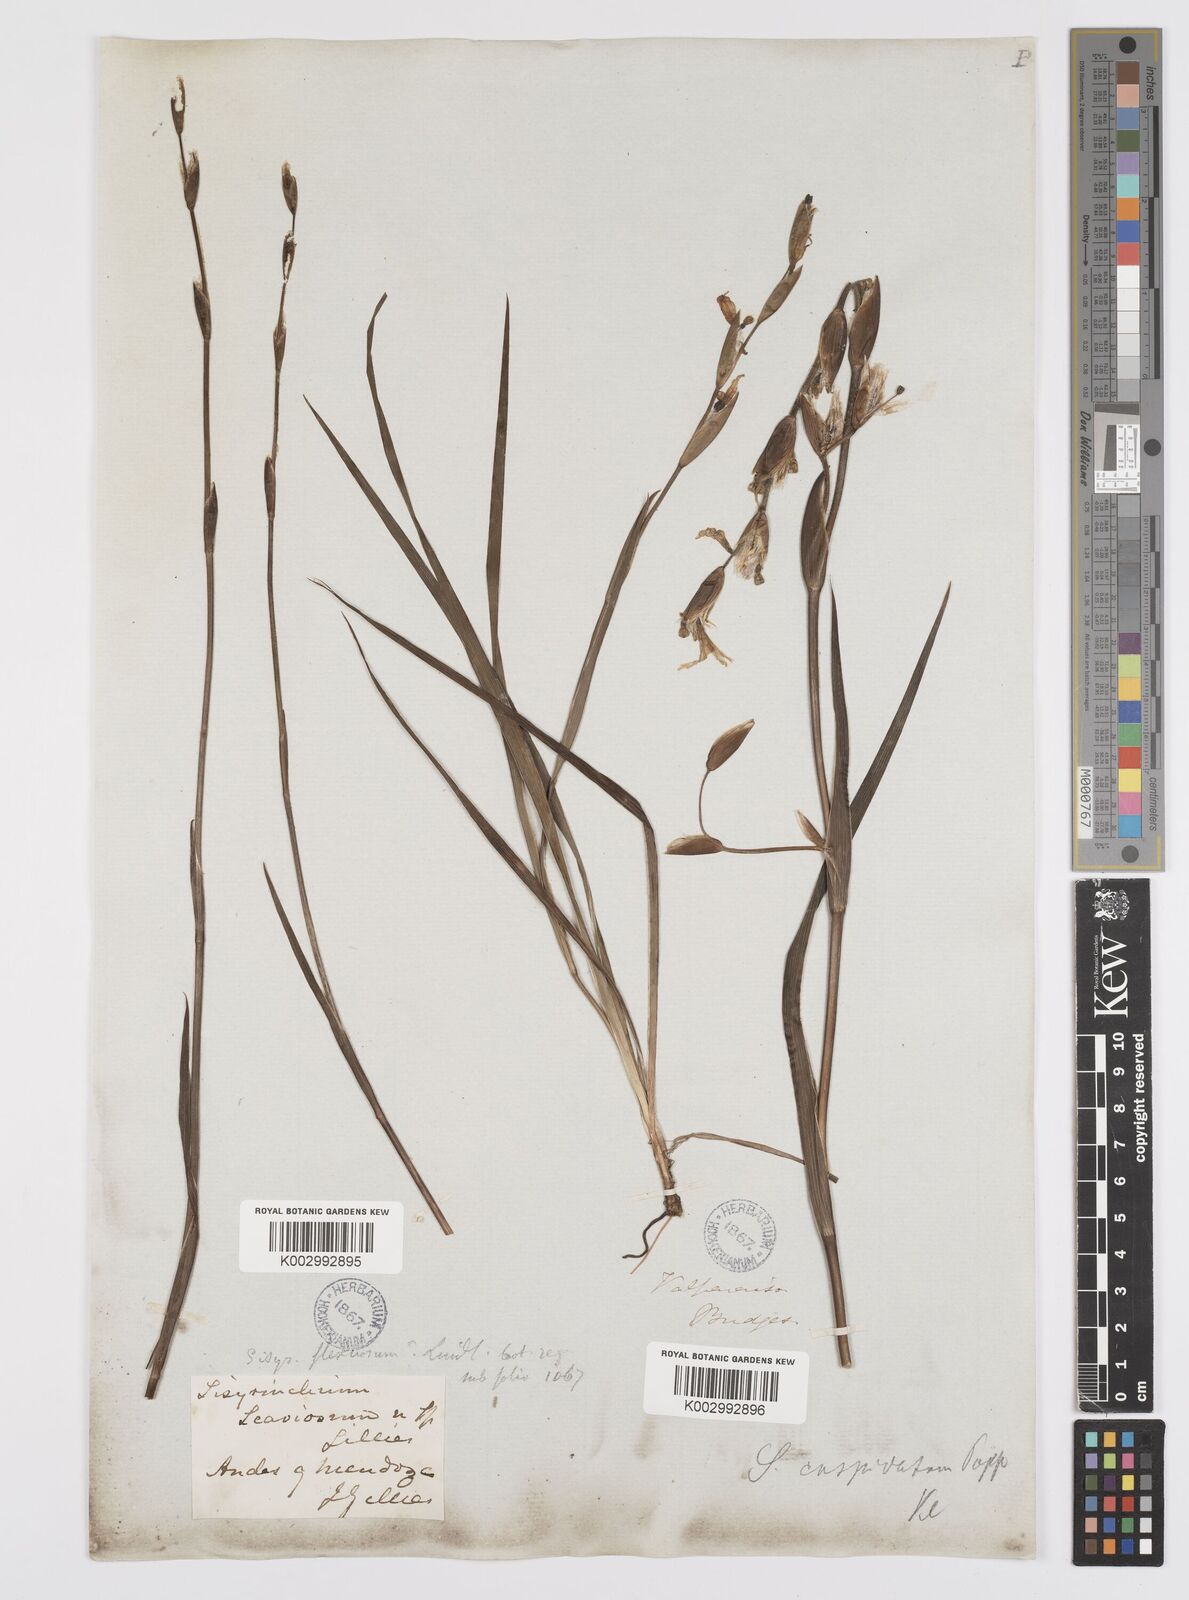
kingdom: Plantae
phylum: Tracheophyta
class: Liliopsida
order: Asparagales
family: Iridaceae
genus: Sisyrinchium
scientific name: Sisyrinchium cuspidatum
